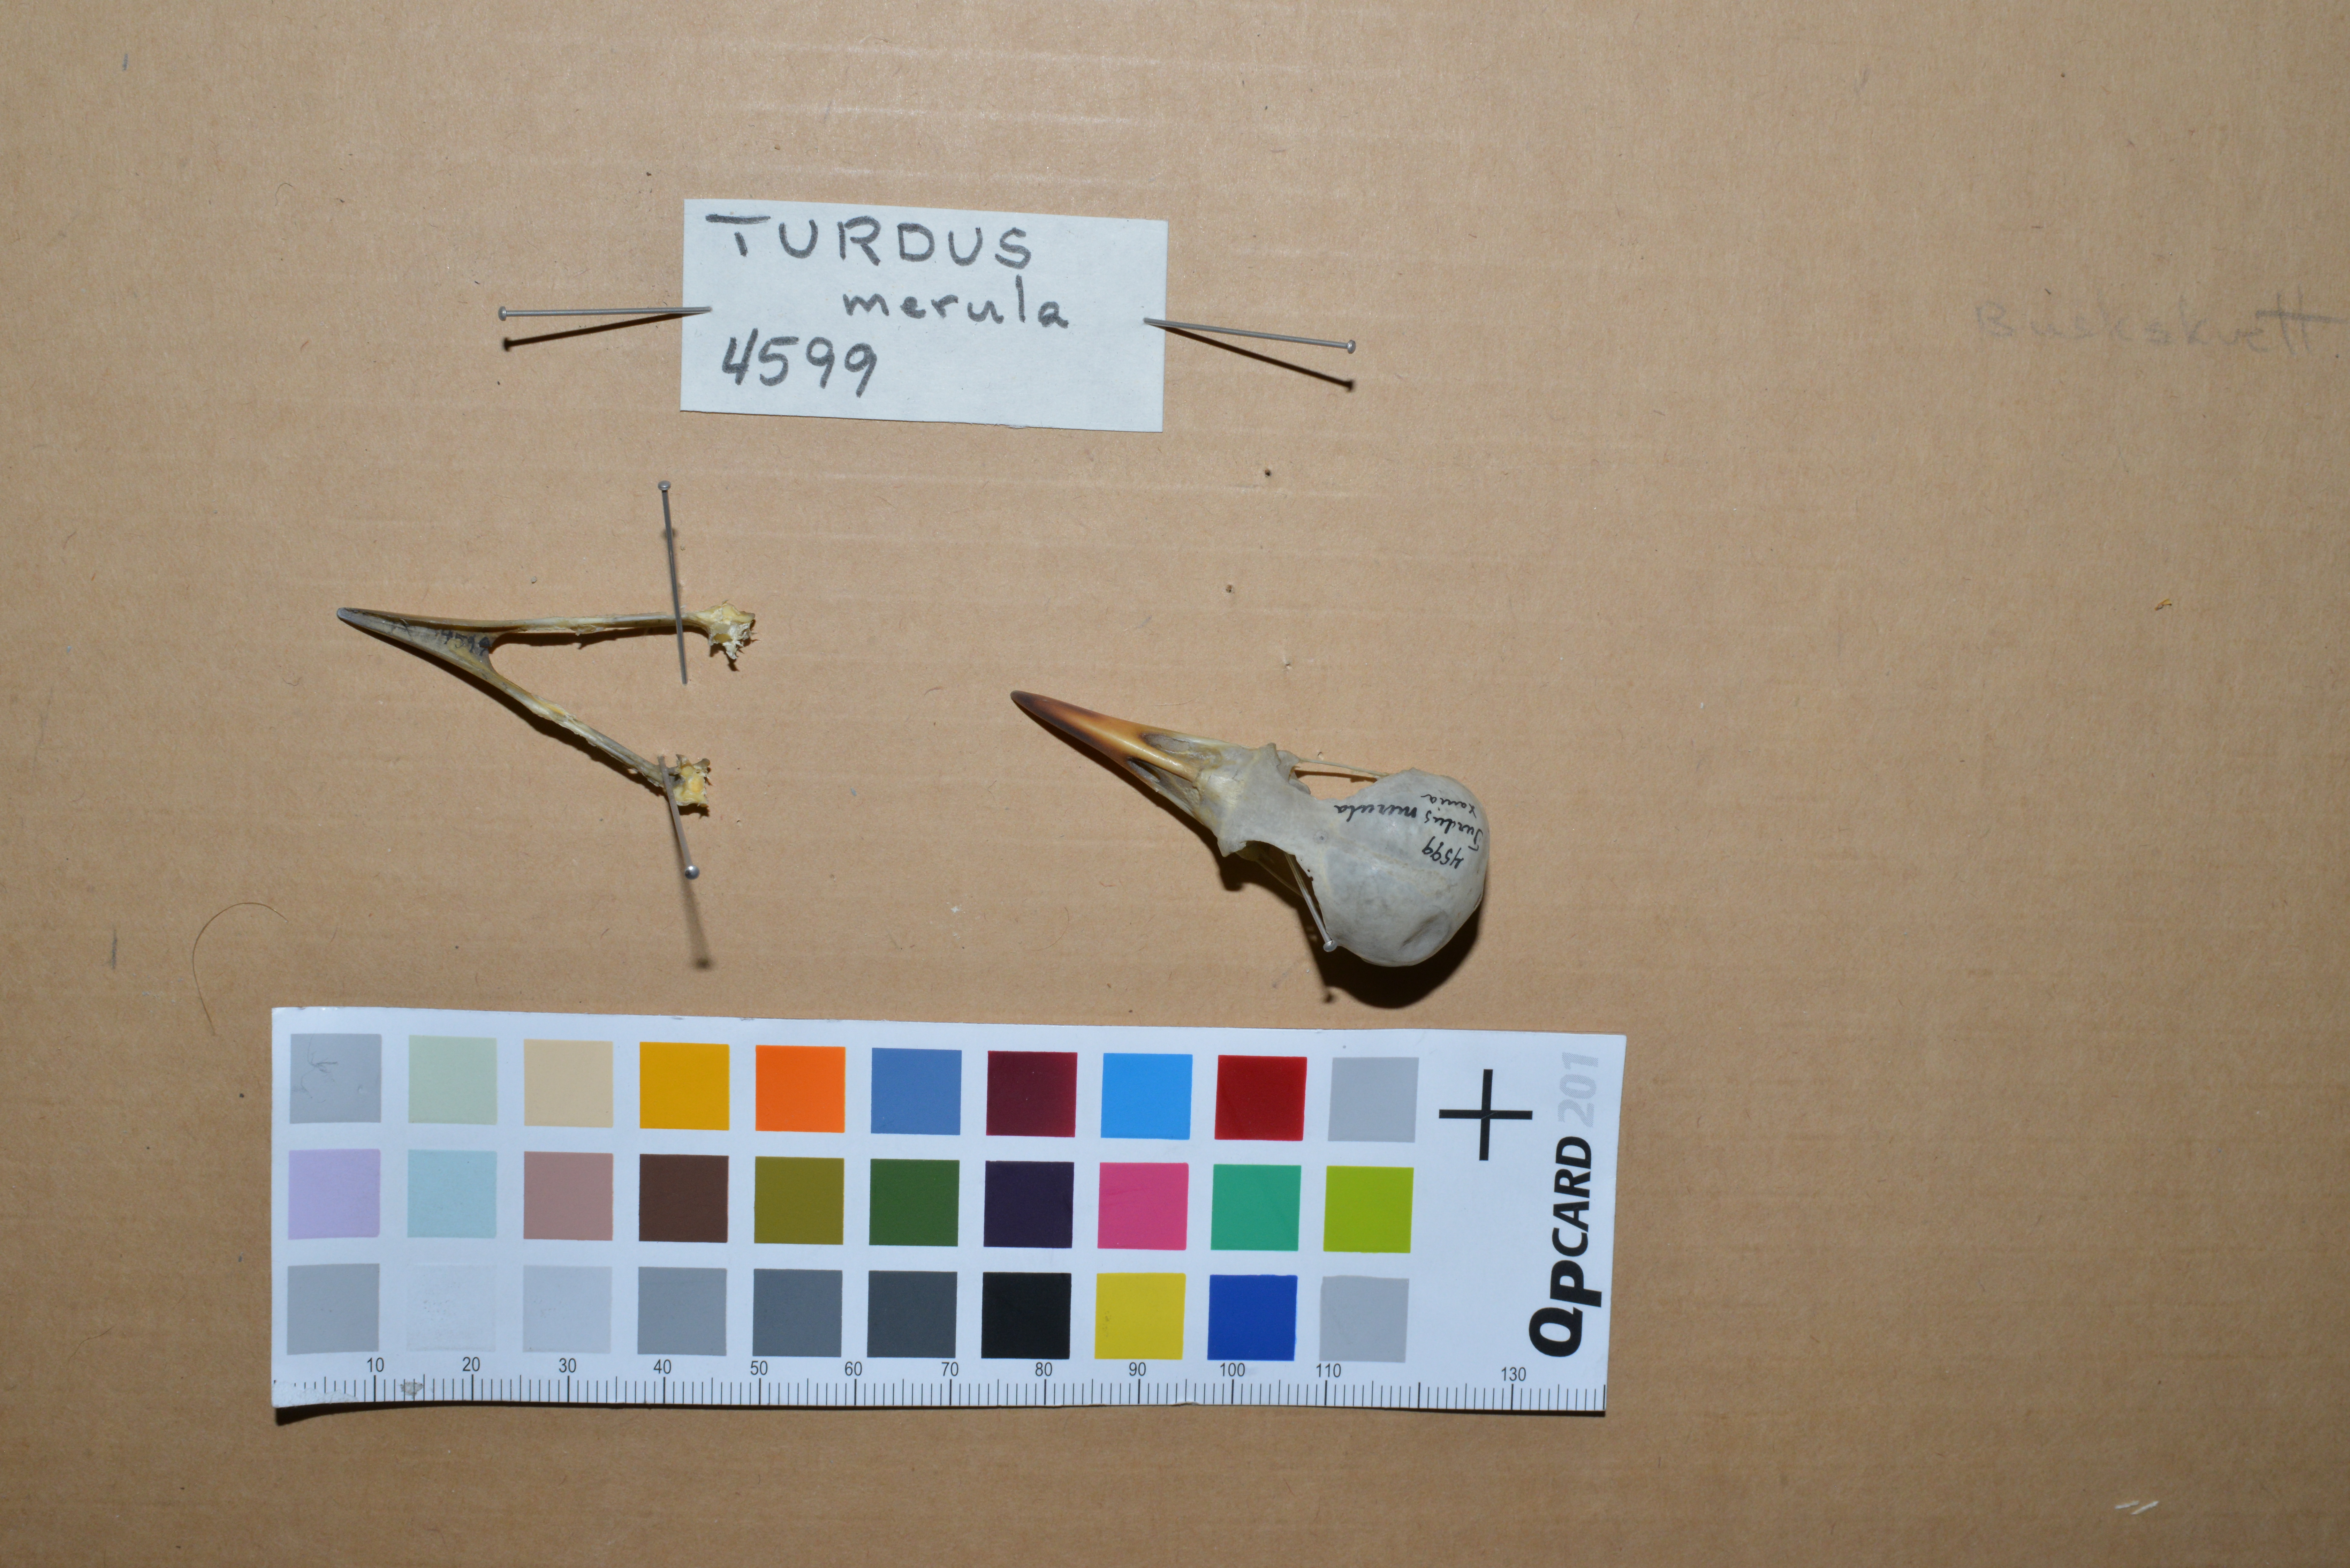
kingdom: Animalia
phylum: Chordata
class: Aves
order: Passeriformes
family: Turdidae
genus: Turdus
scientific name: Turdus merula
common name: Common blackbird
